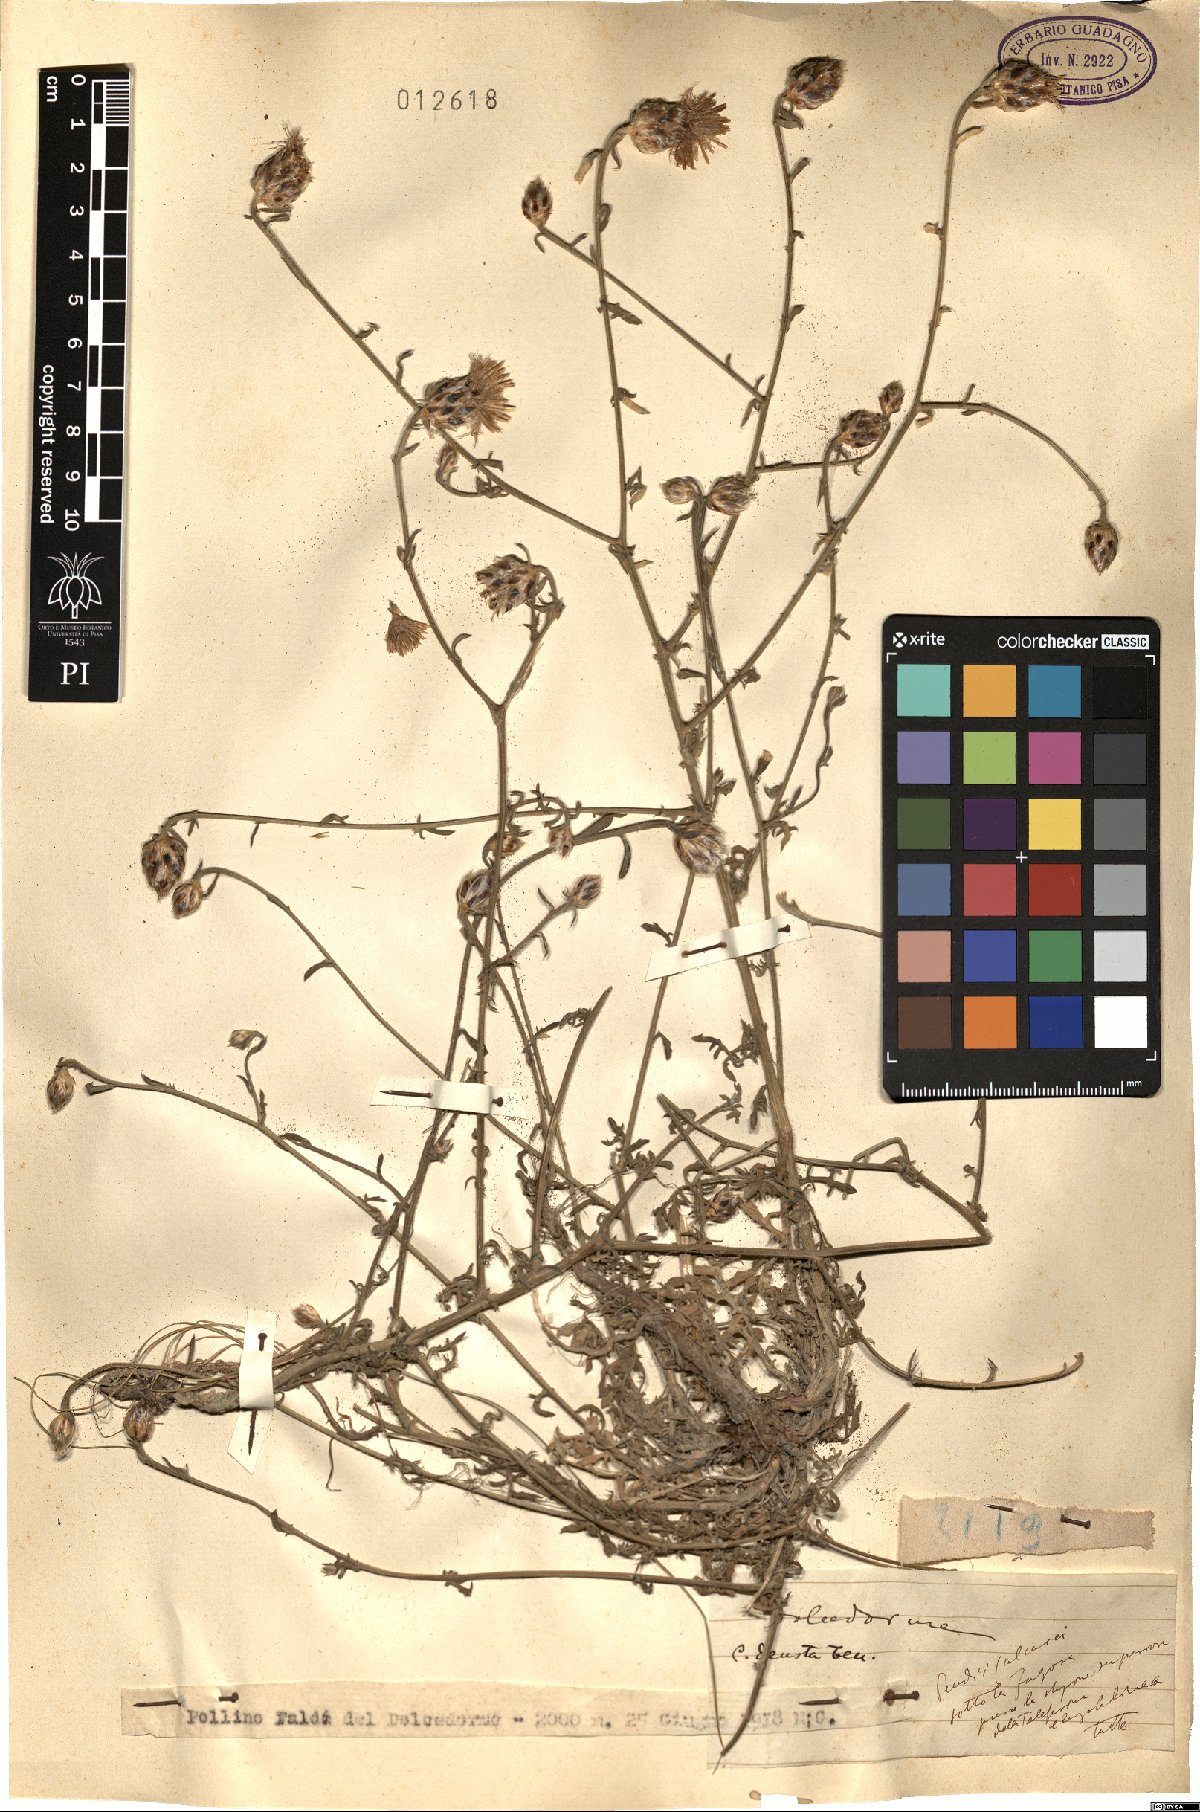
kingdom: Plantae
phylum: Tracheophyta
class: Magnoliopsida
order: Asterales
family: Asteraceae
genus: Centaurea
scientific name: Centaurea deusta
